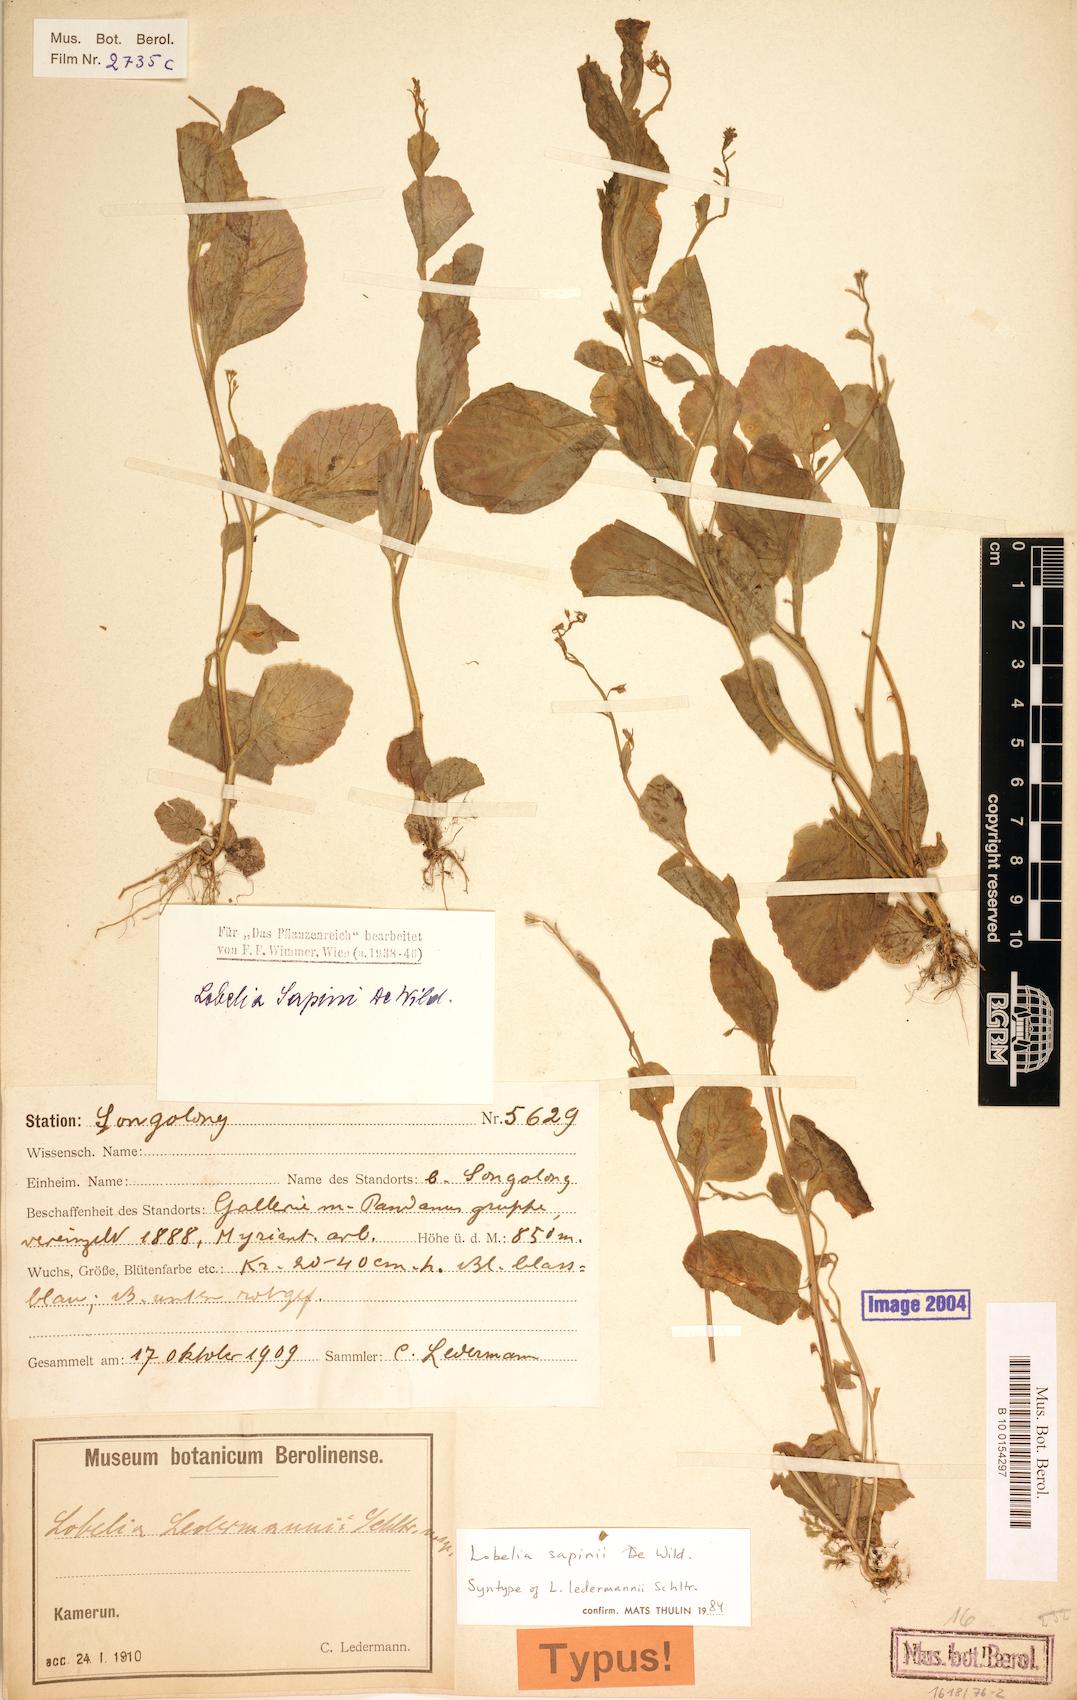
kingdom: Plantae
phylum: Tracheophyta
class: Magnoliopsida
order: Asterales
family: Campanulaceae
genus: Lobelia
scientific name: Lobelia sapinii
